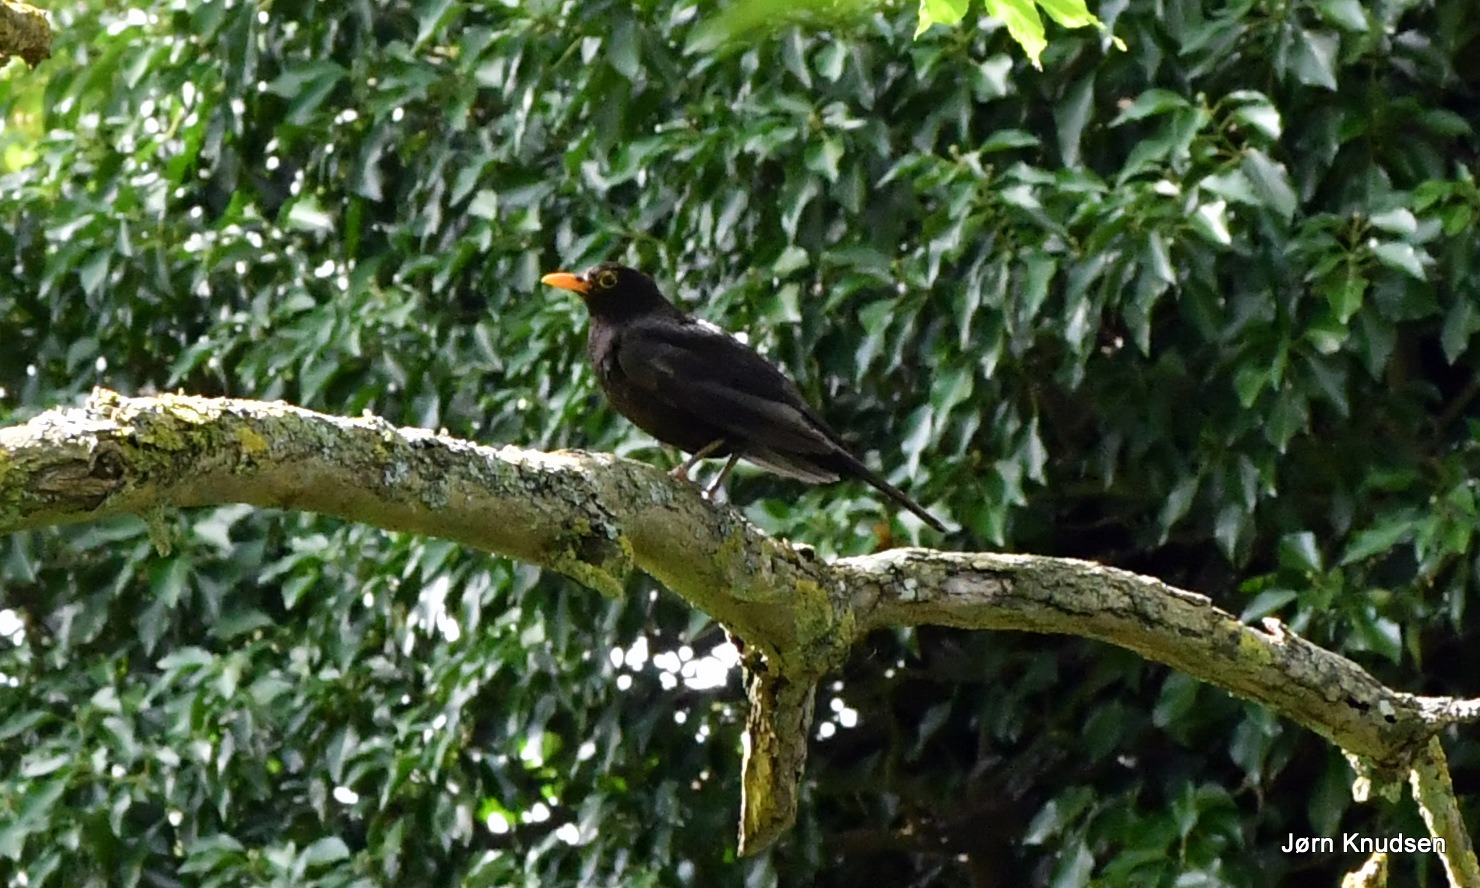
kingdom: Animalia
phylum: Chordata
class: Aves
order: Passeriformes
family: Turdidae
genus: Turdus
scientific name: Turdus merula
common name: Solsort
